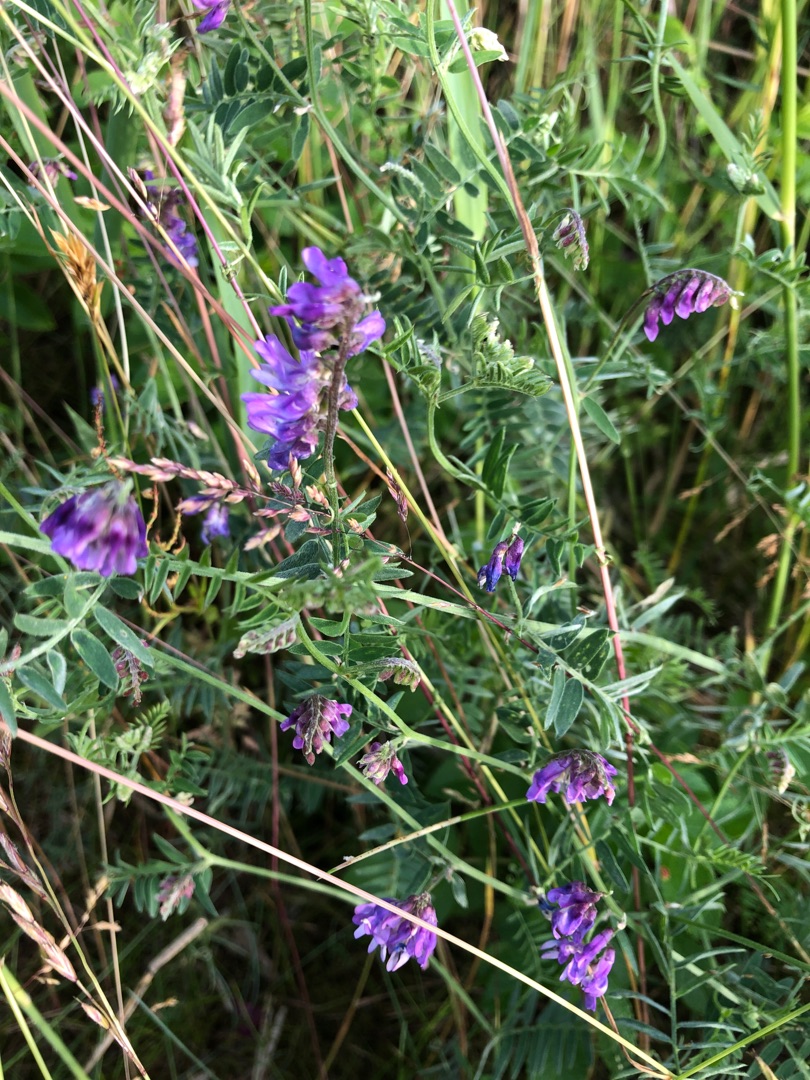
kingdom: Plantae
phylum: Tracheophyta
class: Magnoliopsida
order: Fabales
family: Fabaceae
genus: Vicia
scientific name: Vicia cracca
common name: Muse-vikke
